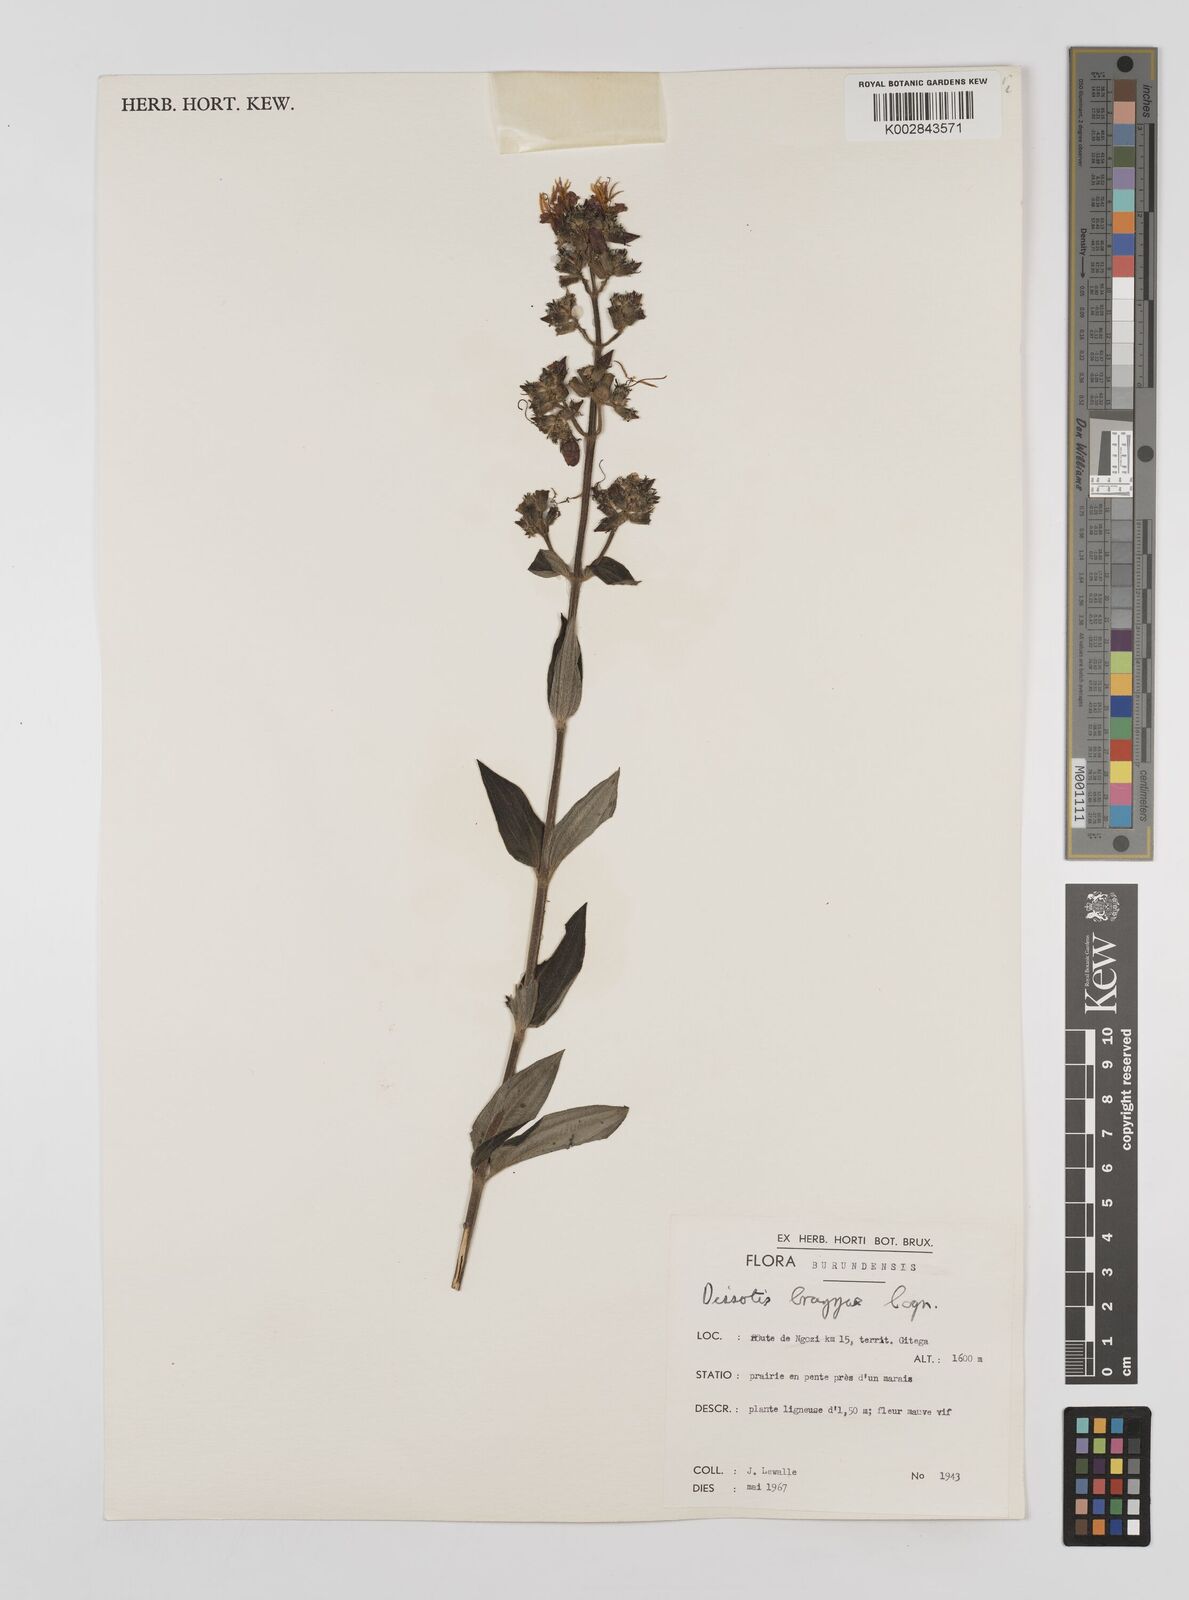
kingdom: Plantae
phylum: Tracheophyta
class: Magnoliopsida
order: Myrtales
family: Melastomataceae
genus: Dupineta
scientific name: Dupineta brazzae
